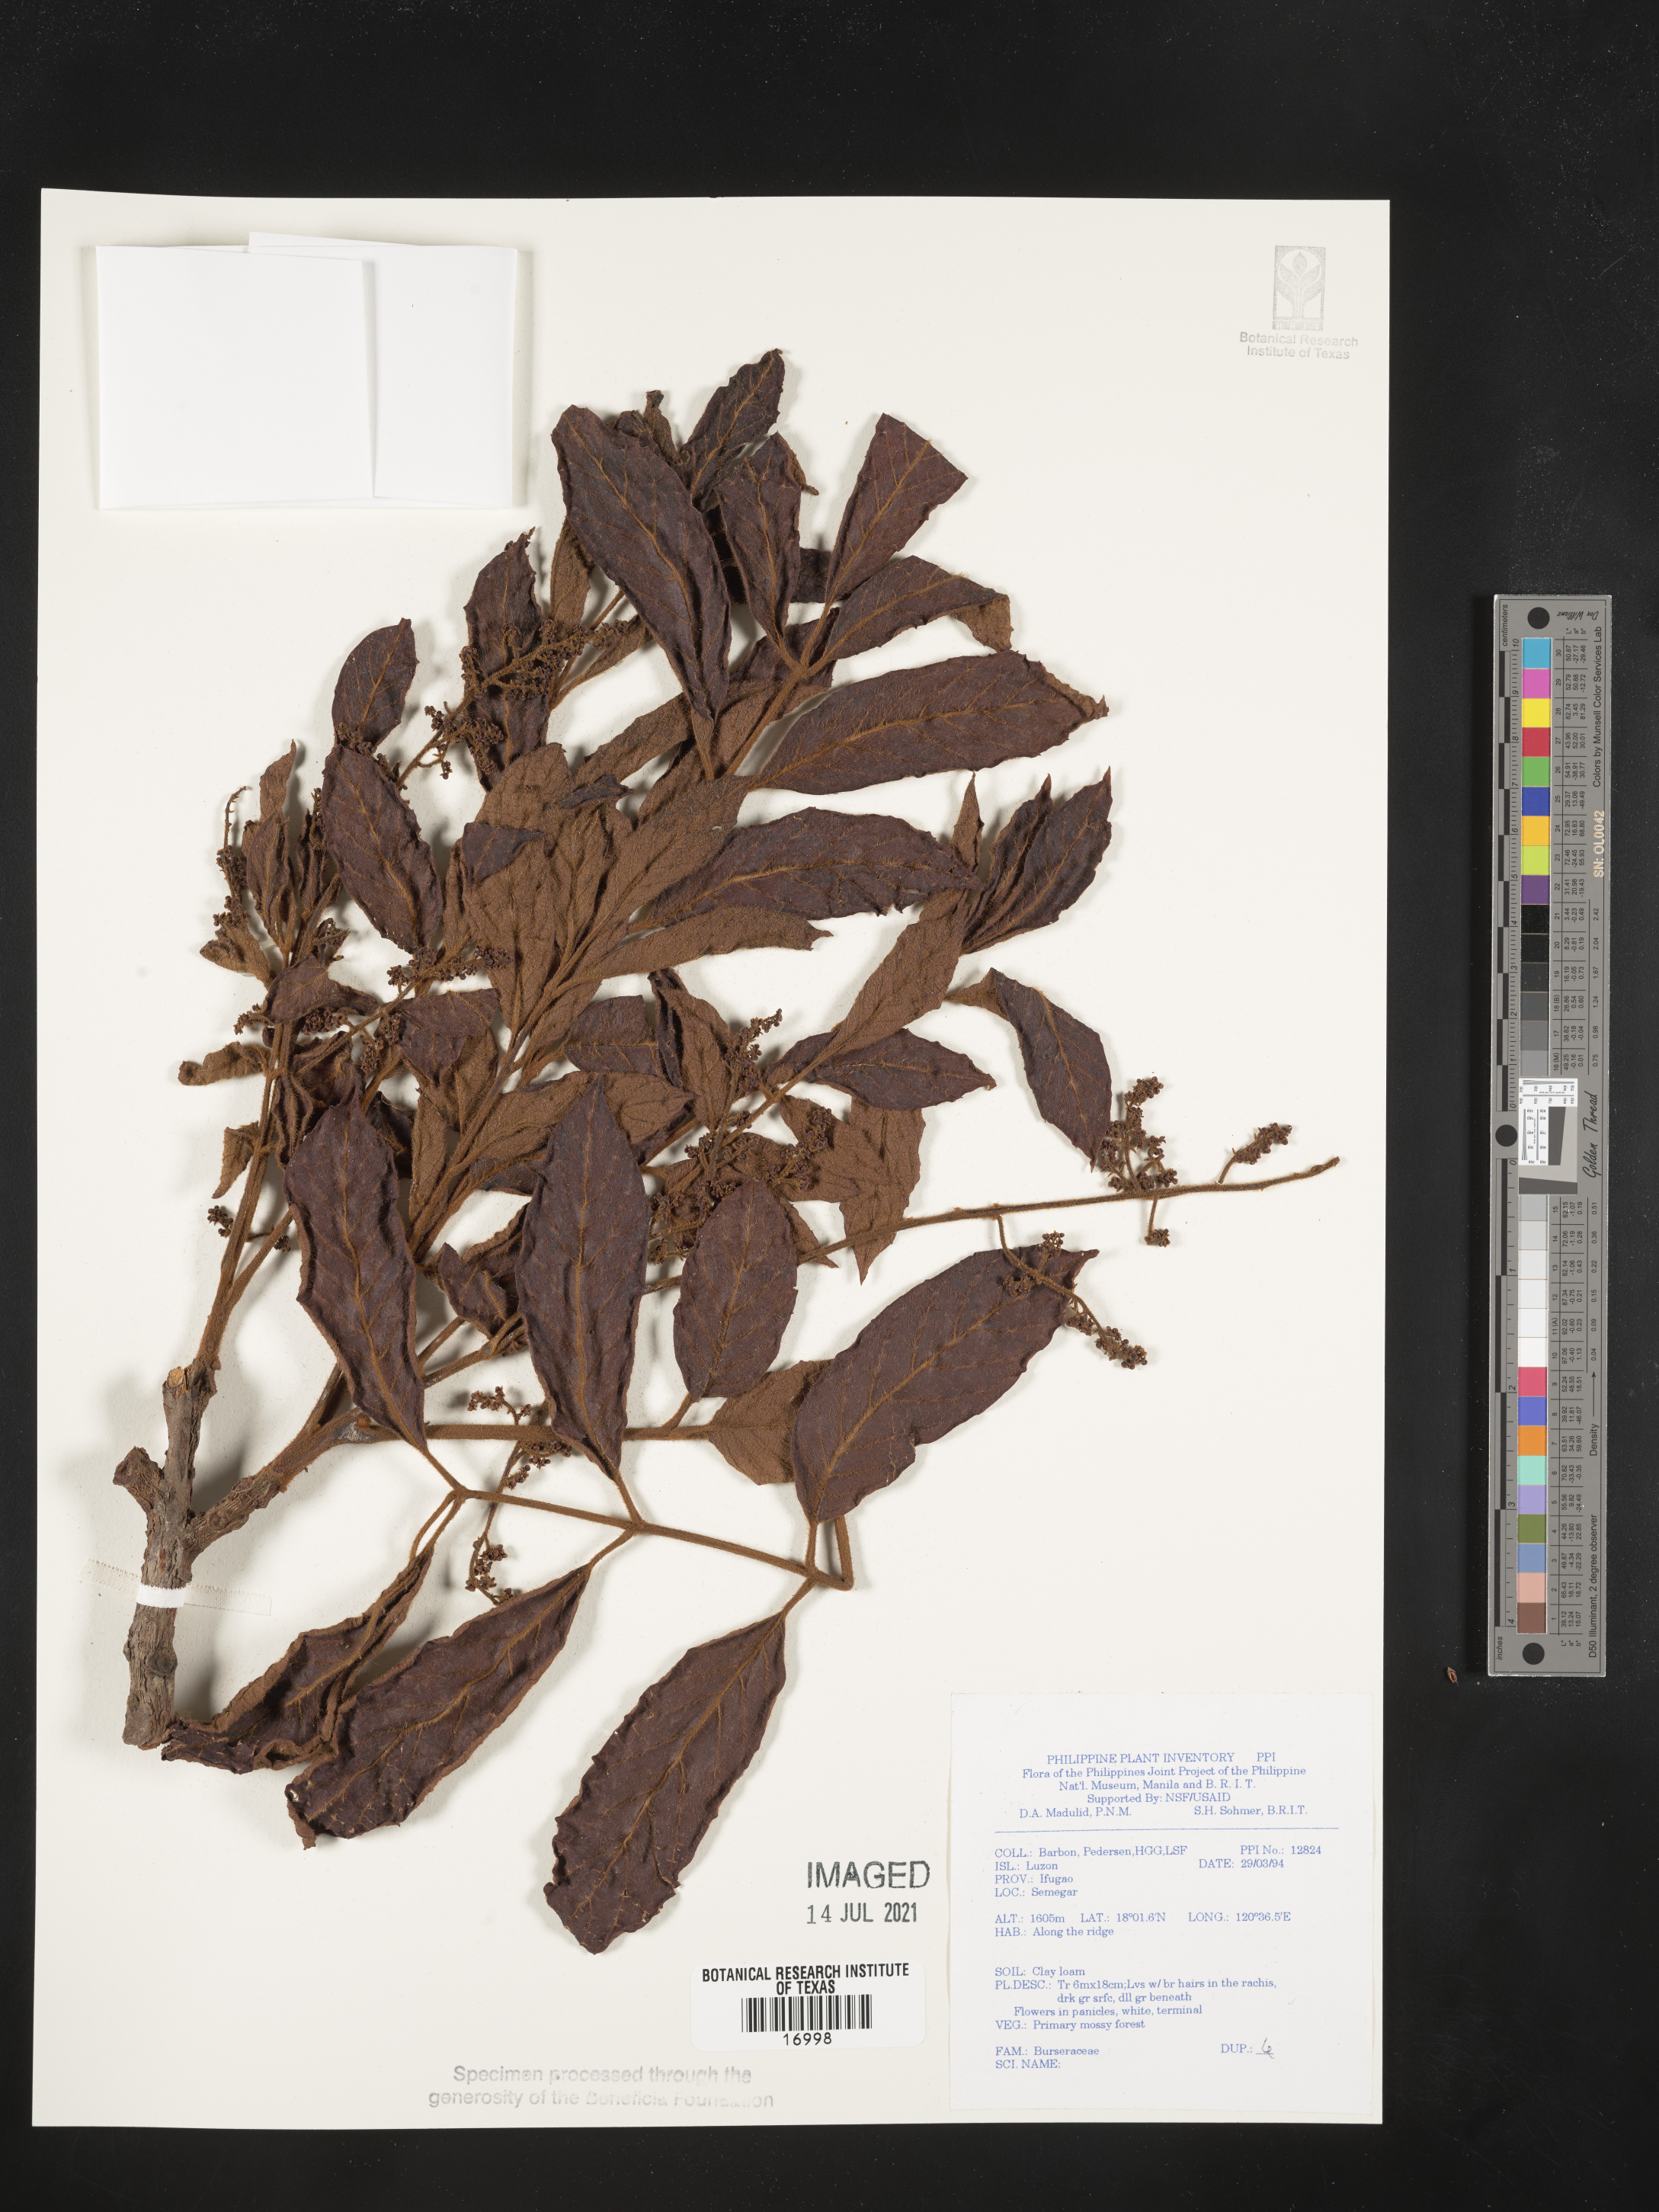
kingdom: Plantae
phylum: Tracheophyta
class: Magnoliopsida
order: Sapindales
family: Burseraceae
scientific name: Burseraceae
